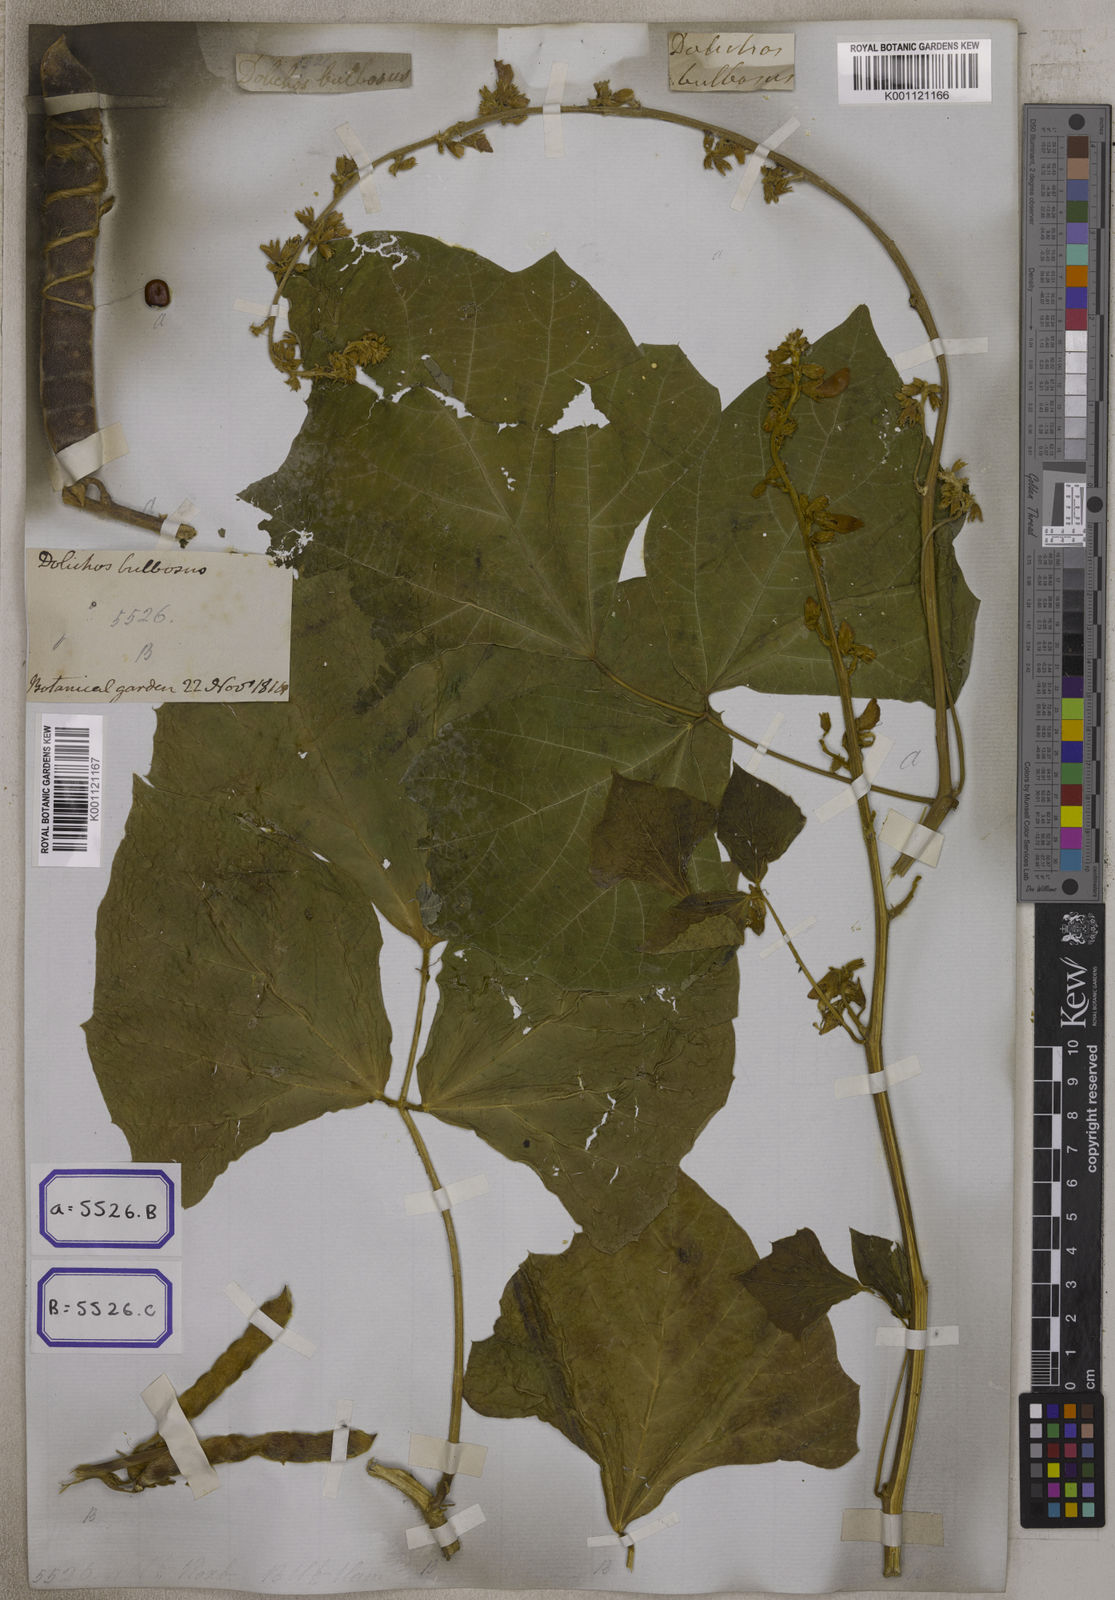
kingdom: Plantae
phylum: Tracheophyta
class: Magnoliopsida
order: Fabales
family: Fabaceae
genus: Pachyrhizus
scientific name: Pachyrhizus
